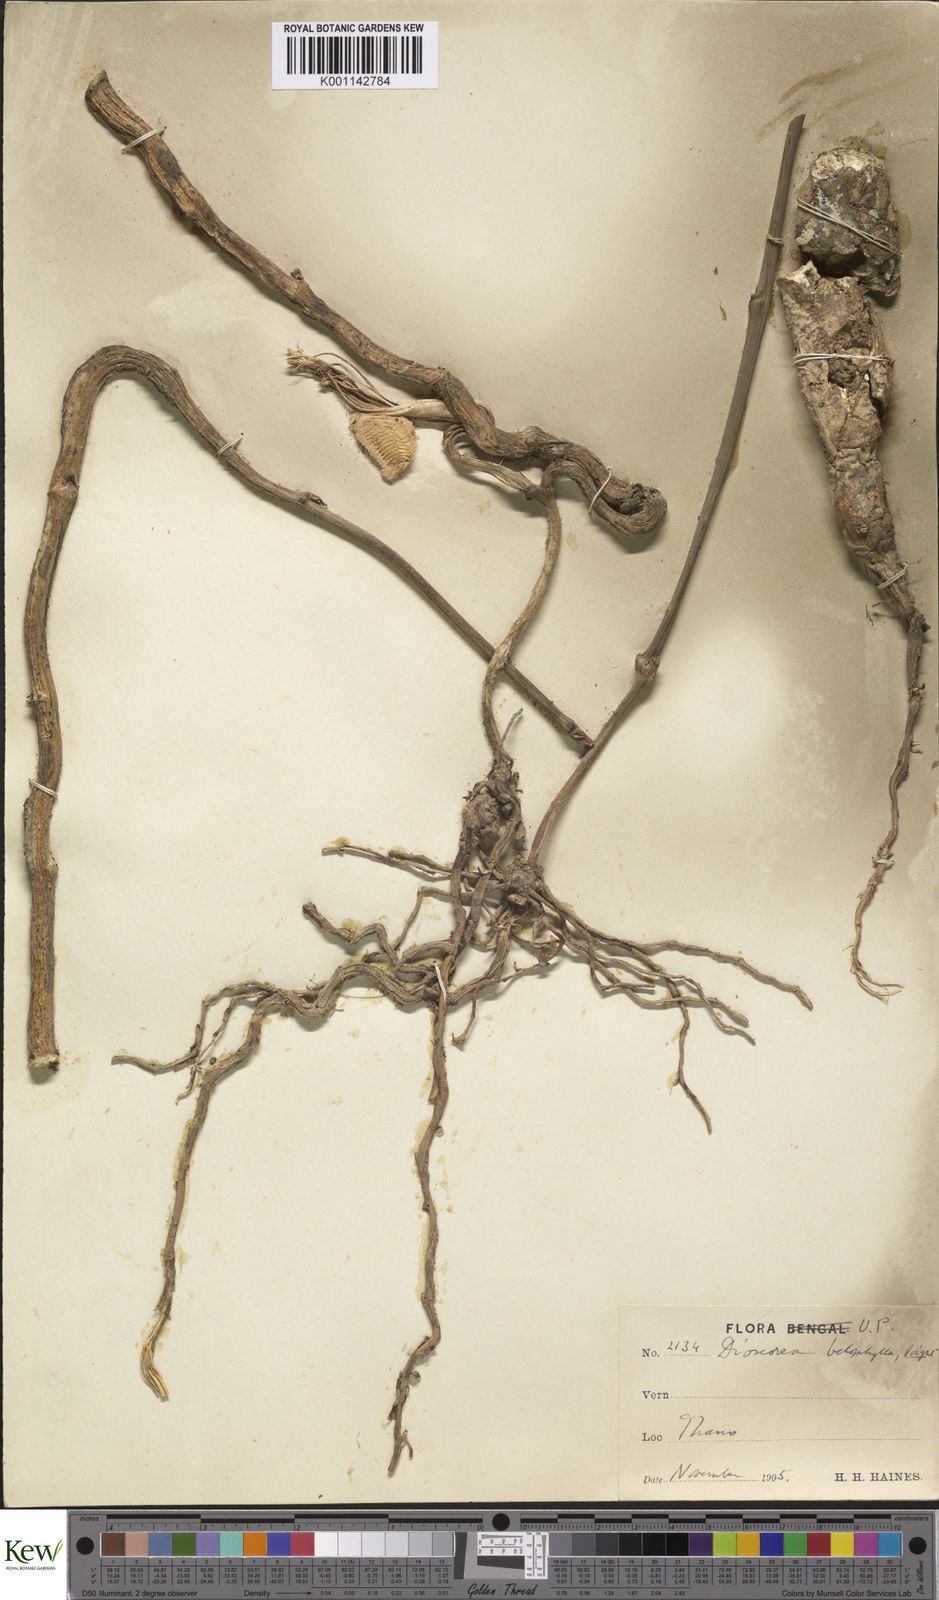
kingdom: Plantae
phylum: Tracheophyta
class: Liliopsida
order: Dioscoreales
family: Dioscoreaceae
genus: Dioscorea
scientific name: Dioscorea belophylla
